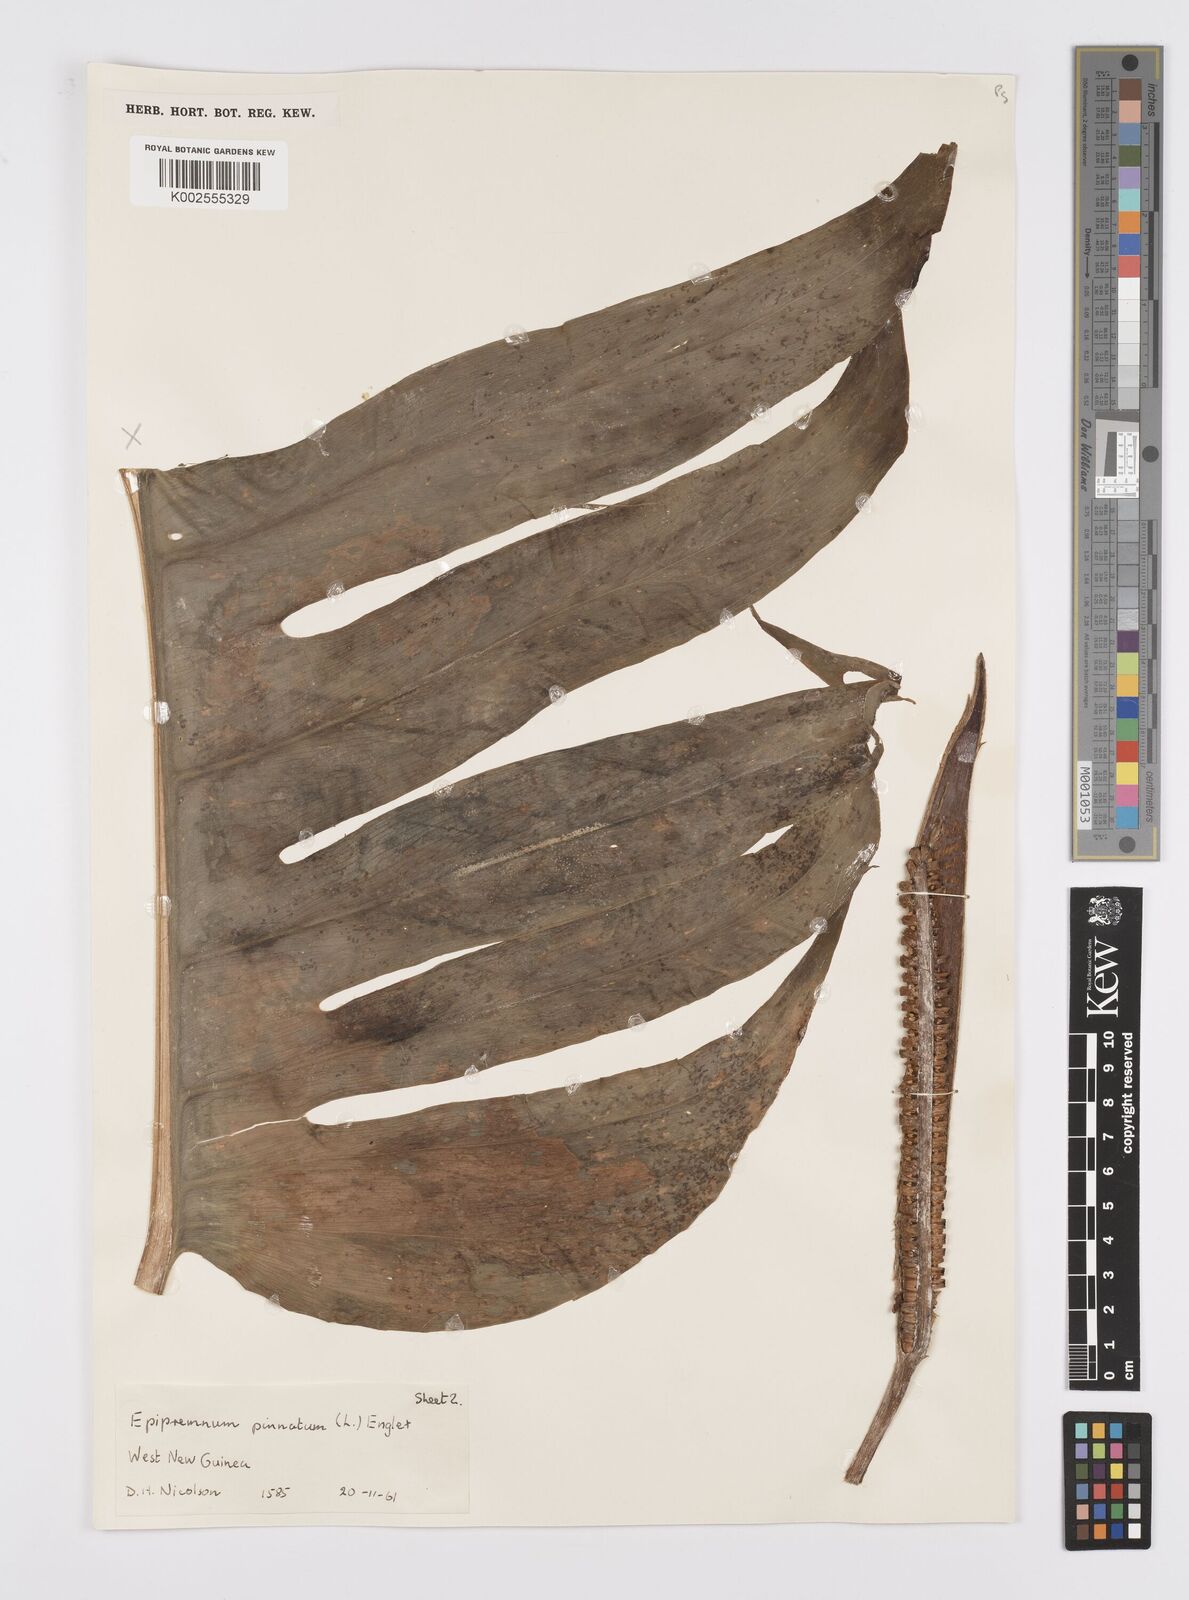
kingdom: Plantae
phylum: Tracheophyta
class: Liliopsida
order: Alismatales
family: Araceae
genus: Epipremnum
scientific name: Epipremnum pinnatum
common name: Centipede tongavine
